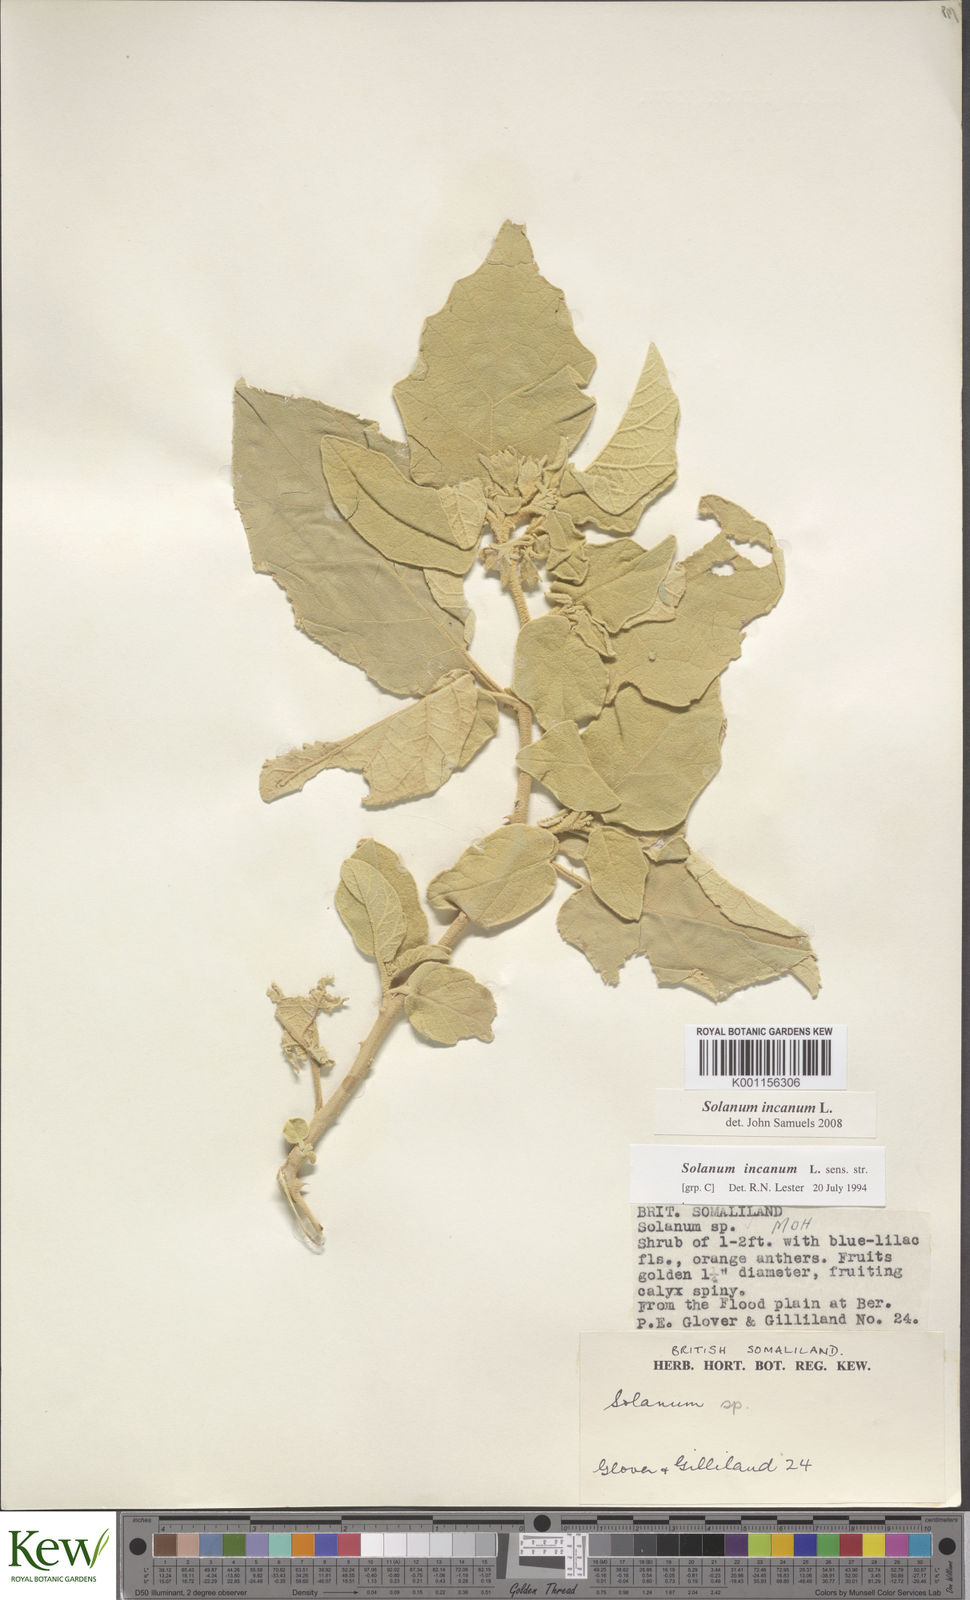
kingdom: Plantae
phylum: Tracheophyta
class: Magnoliopsida
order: Solanales
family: Solanaceae
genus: Solanum
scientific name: Solanum incanum
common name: Bitter apple
